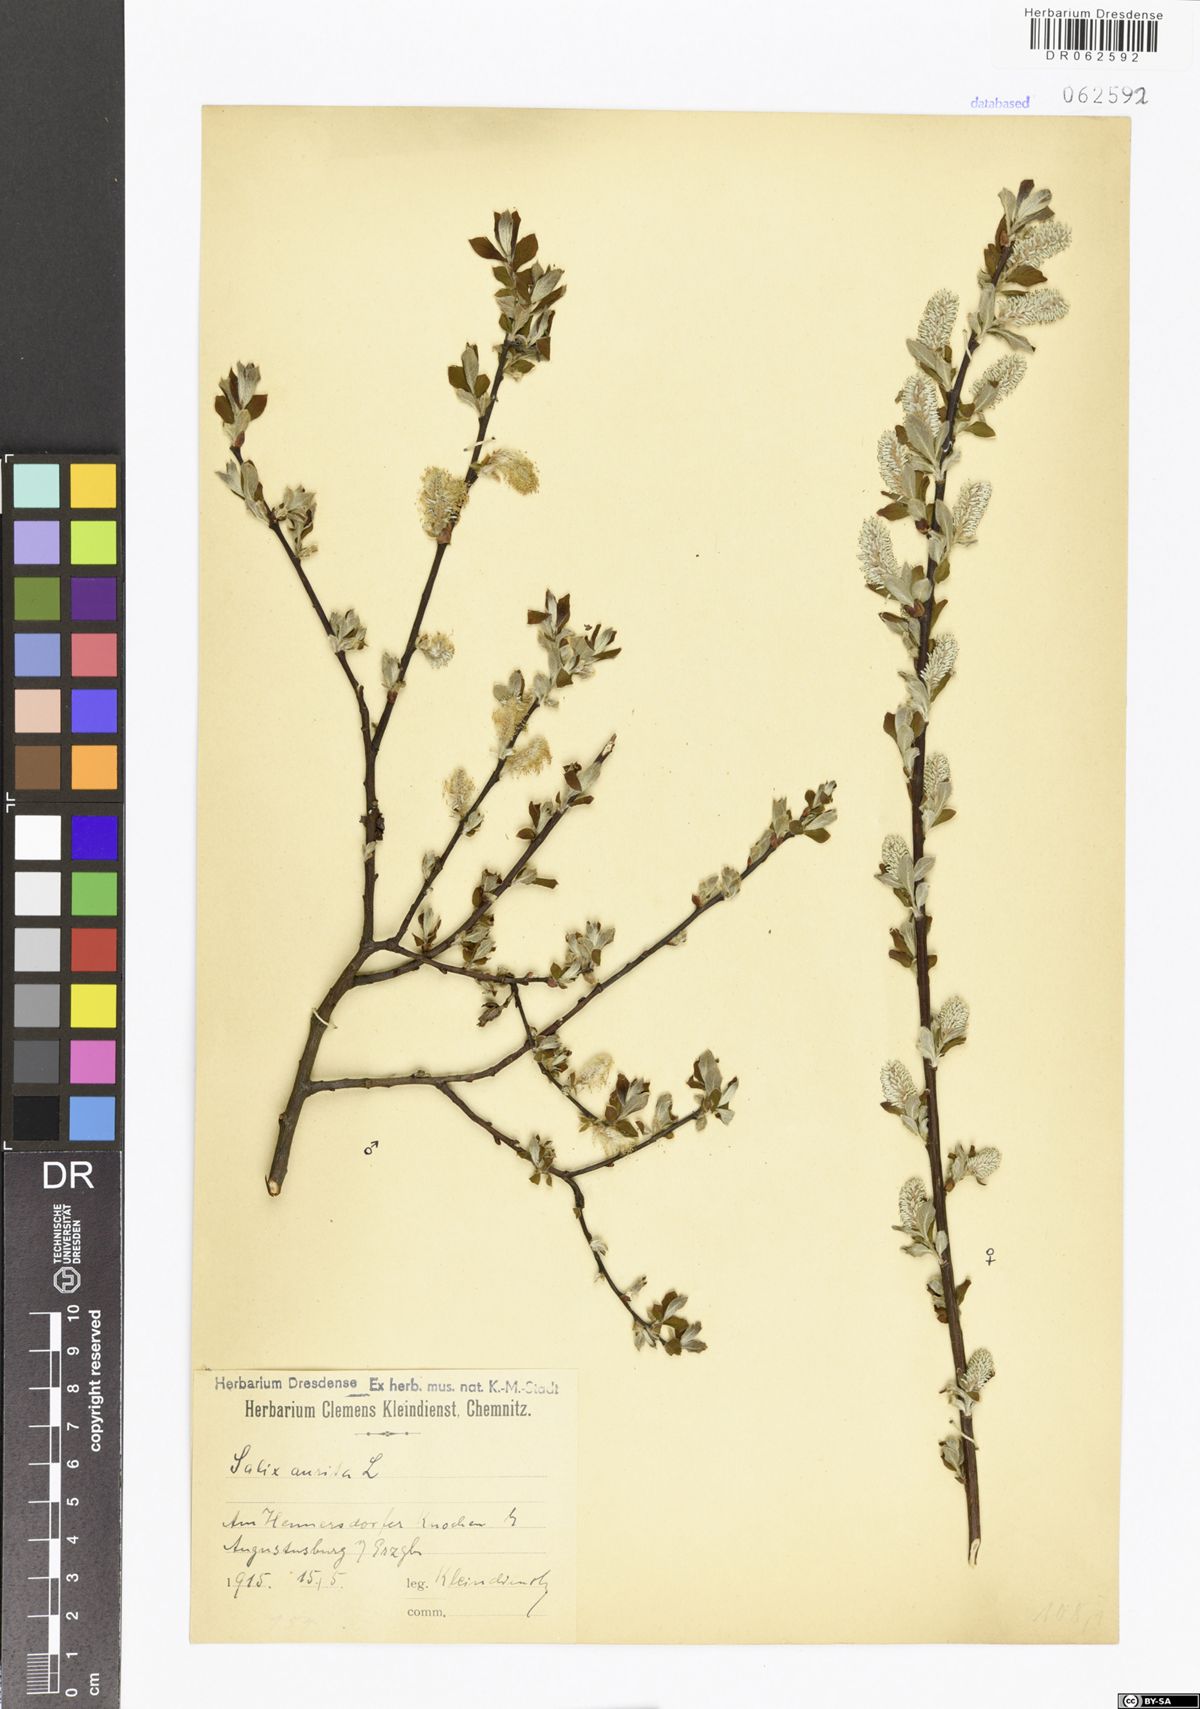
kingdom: Plantae
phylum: Tracheophyta
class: Magnoliopsida
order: Malpighiales
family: Salicaceae
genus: Salix
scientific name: Salix aurita
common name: Eared willow
